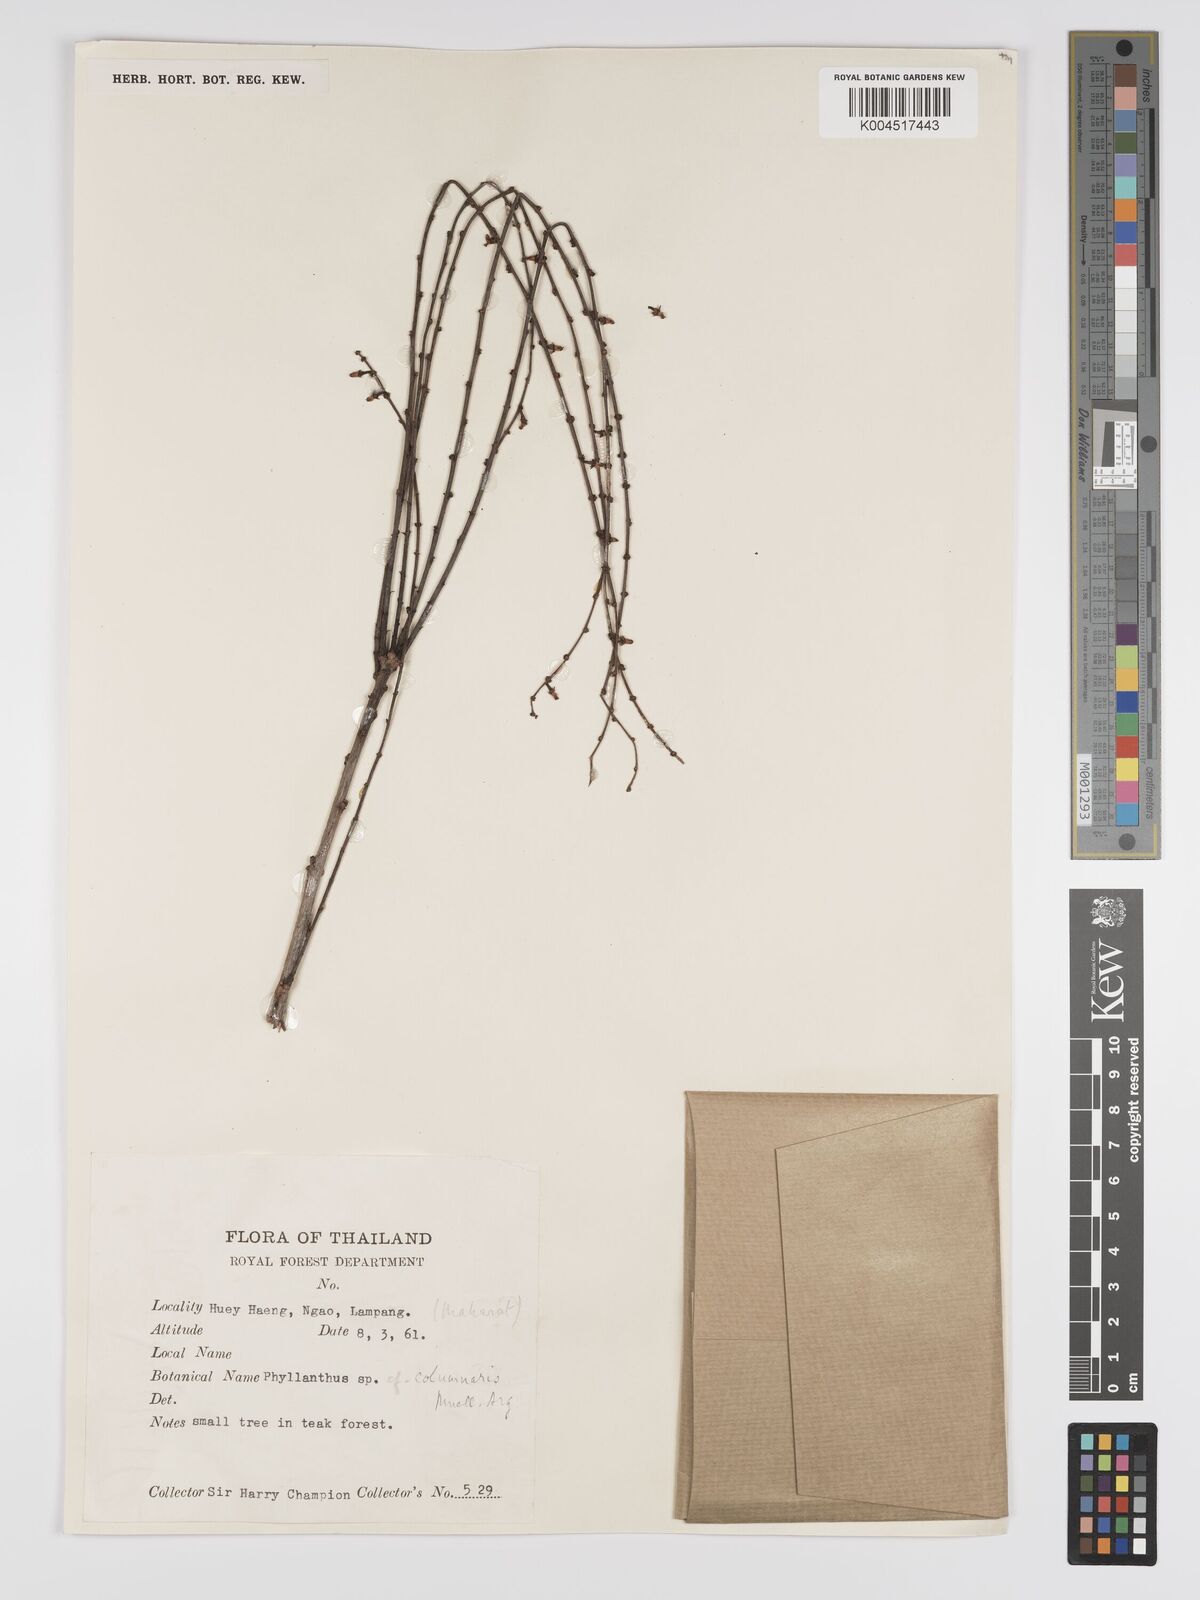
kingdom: Plantae
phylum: Tracheophyta
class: Magnoliopsida
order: Malpighiales
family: Phyllanthaceae
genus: Phyllanthus
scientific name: Phyllanthus
